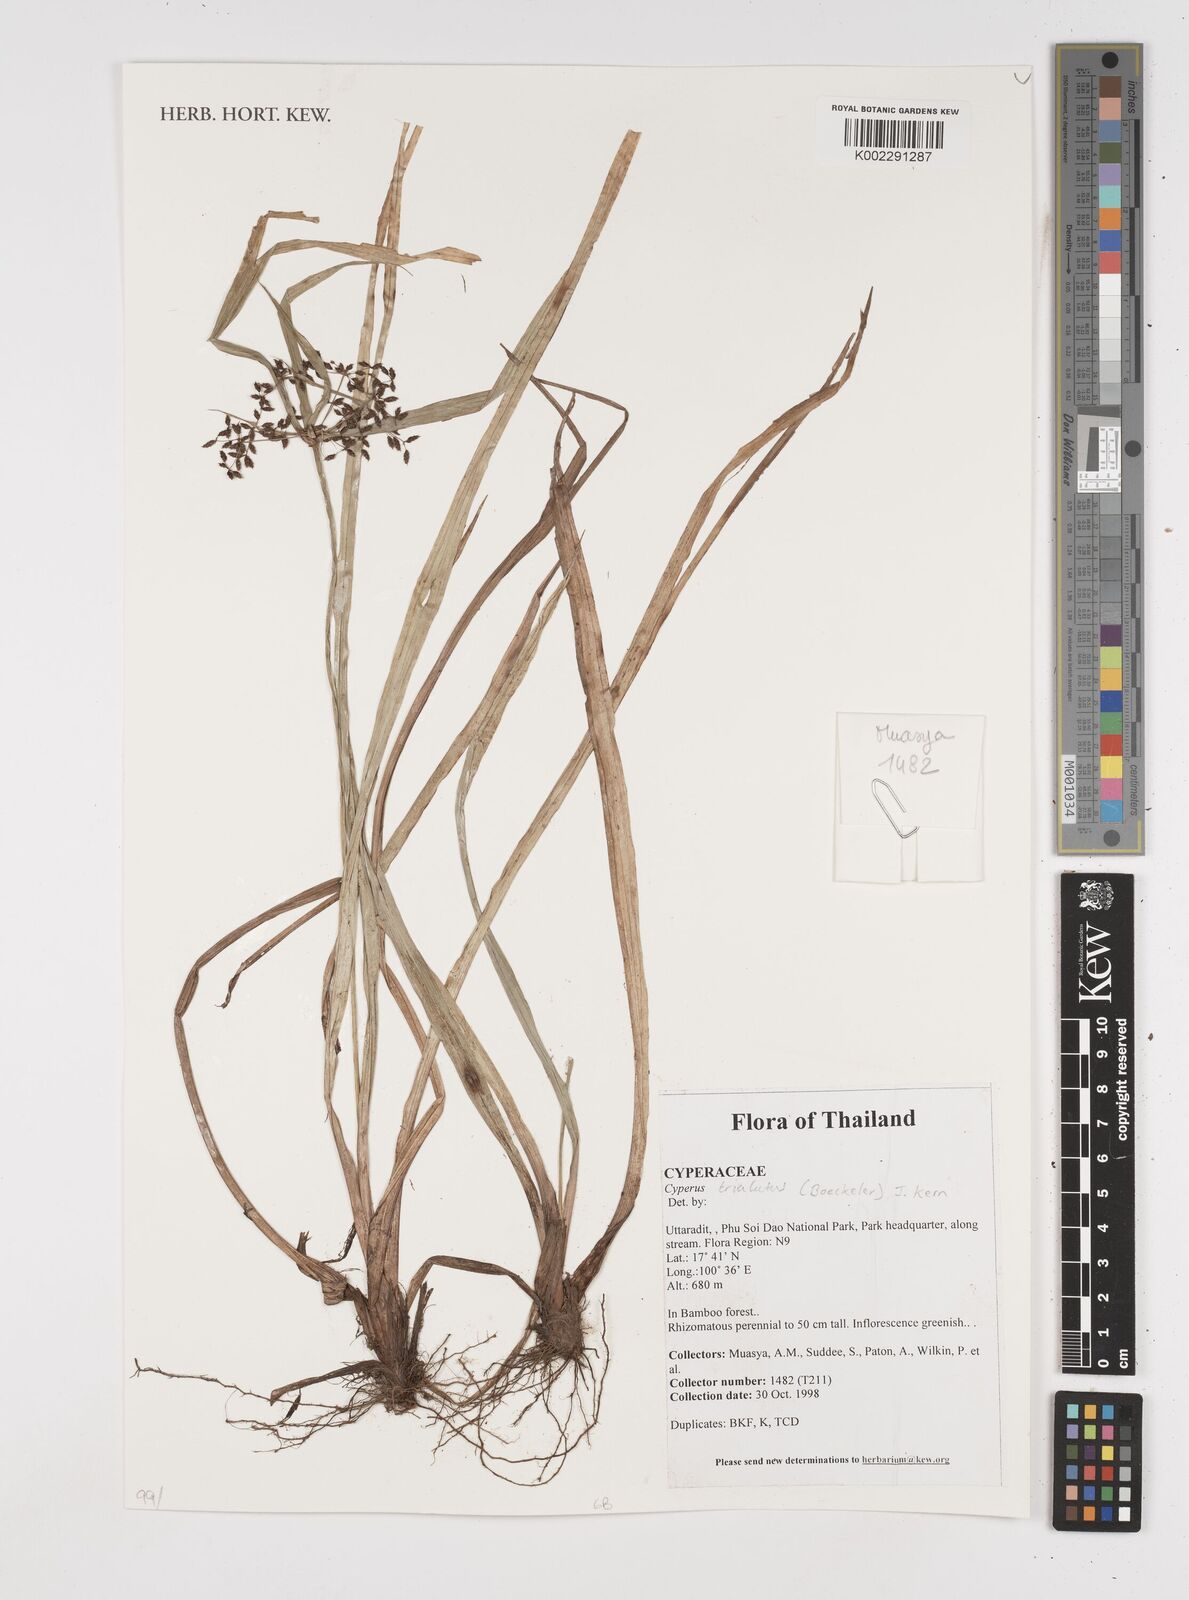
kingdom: Plantae
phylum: Tracheophyta
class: Liliopsida
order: Poales
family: Cyperaceae
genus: Cyperus
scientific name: Cyperus trialatus
